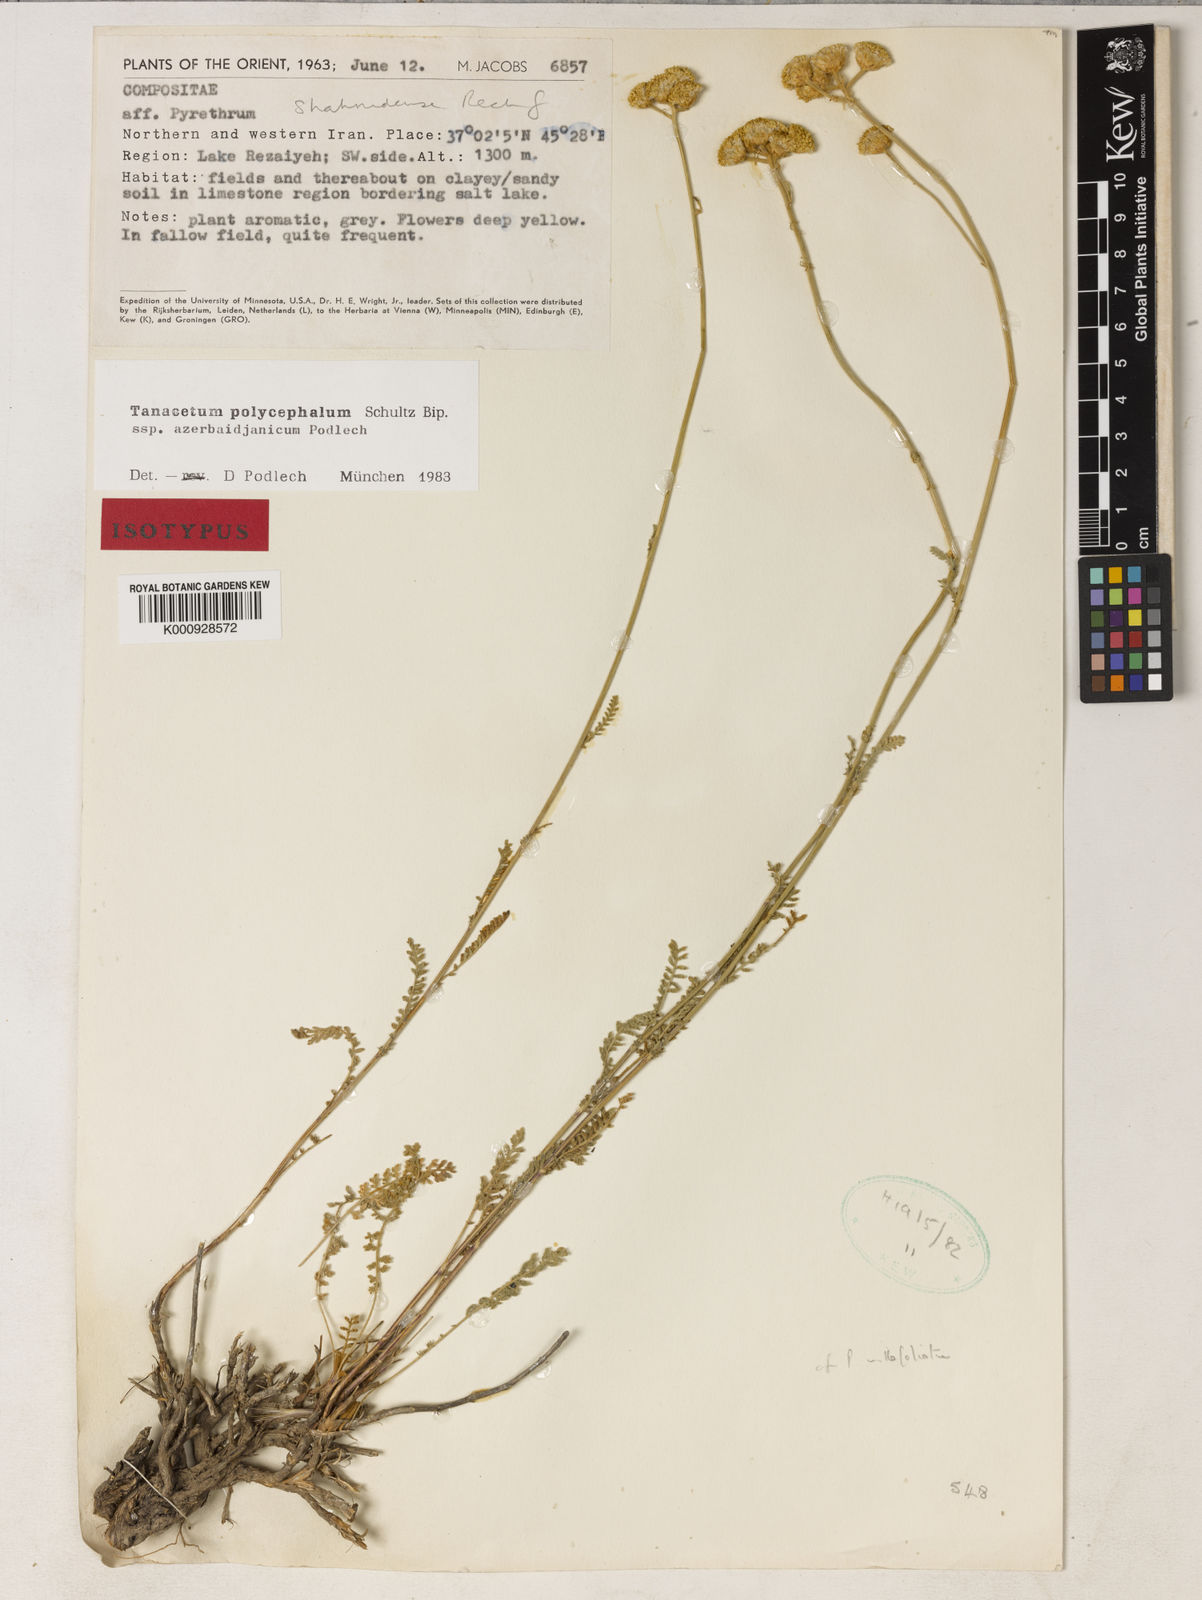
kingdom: Plantae
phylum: Tracheophyta
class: Magnoliopsida
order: Asterales
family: Asteraceae
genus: Tanacetum
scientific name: Tanacetum polycephalum
